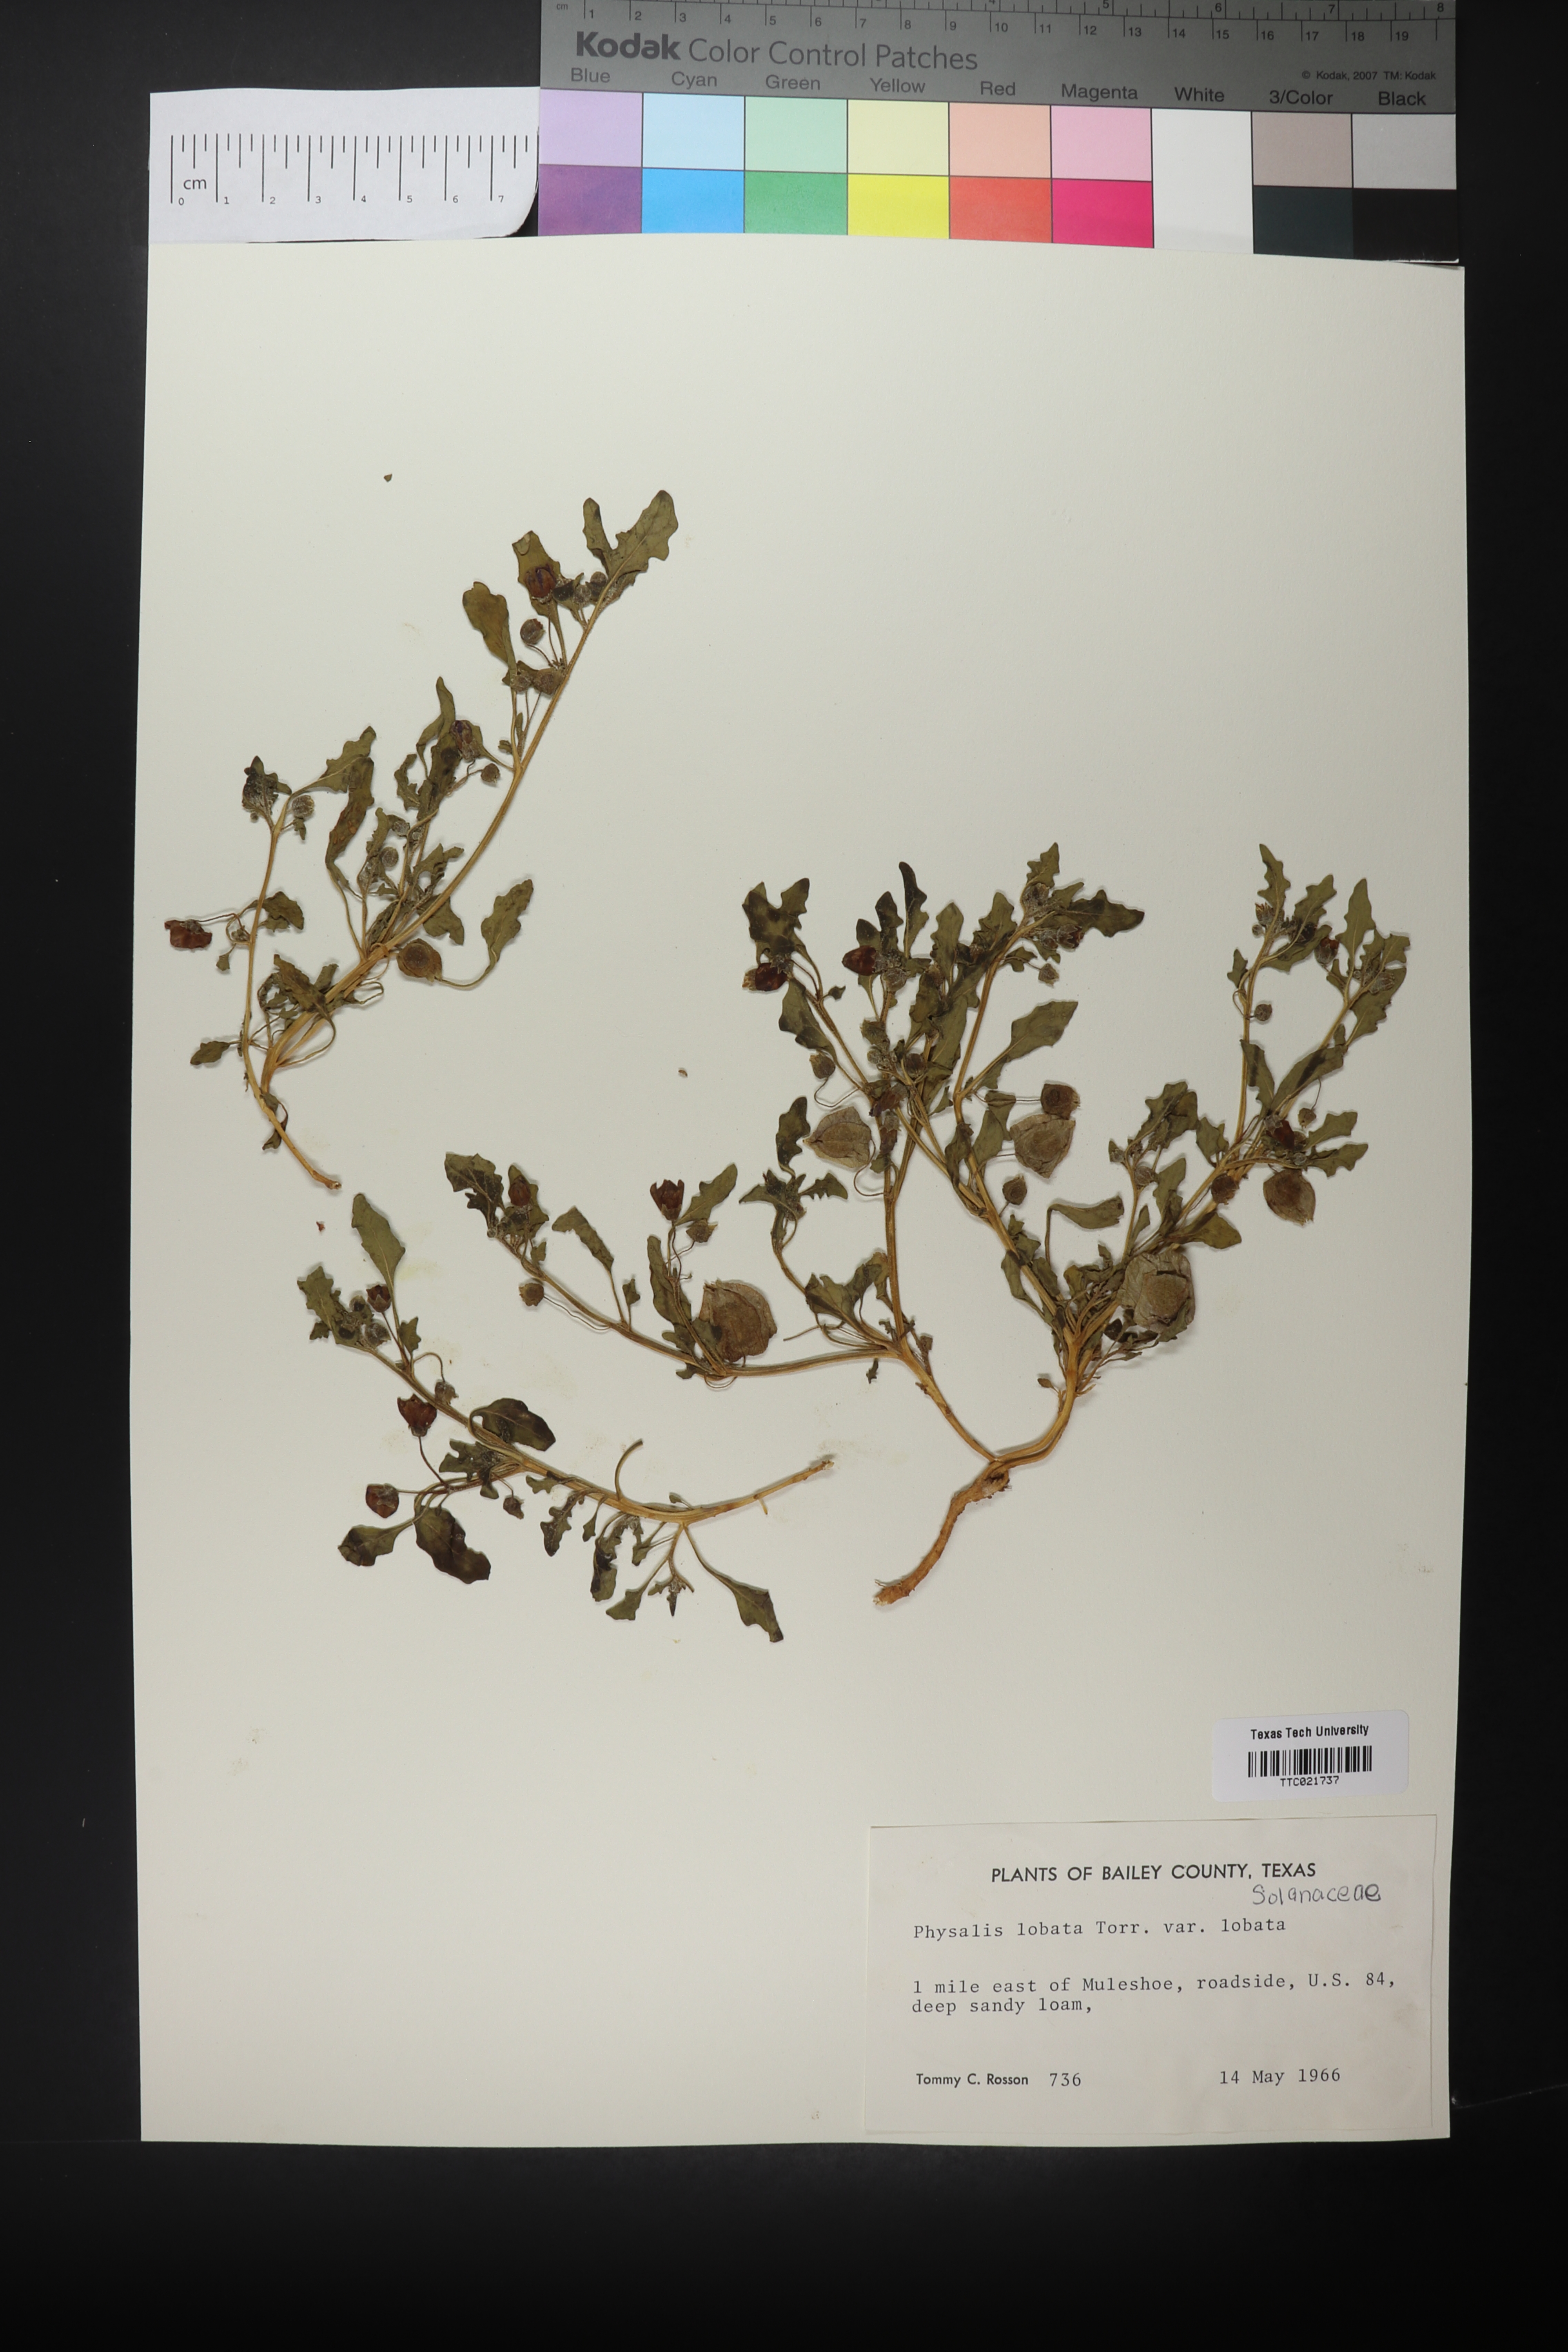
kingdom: Plantae
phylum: Tracheophyta
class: Magnoliopsida
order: Solanales
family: Solanaceae
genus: Quincula
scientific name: Quincula lobata
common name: Purple-ground-cherry
